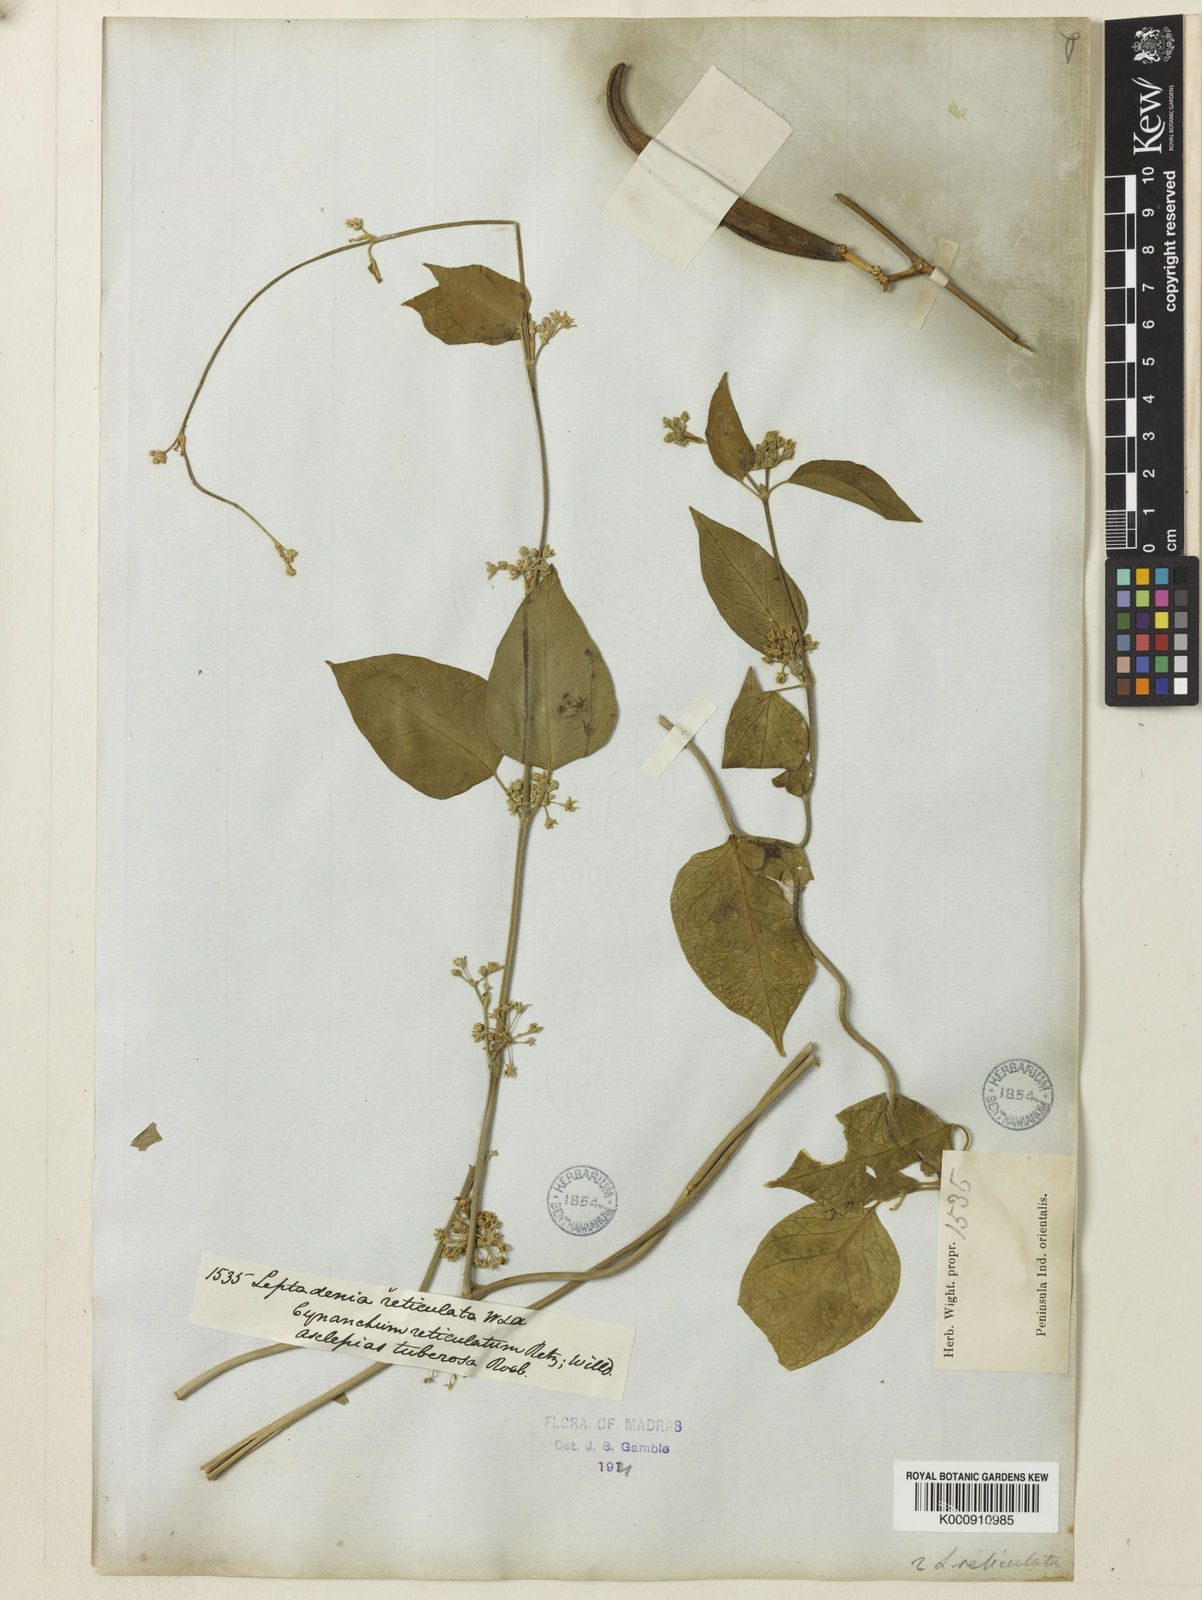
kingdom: Plantae
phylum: Tracheophyta
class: Magnoliopsida
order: Gentianales
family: Apocynaceae
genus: Leptadenia
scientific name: Leptadenia reticulata
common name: Leptadenia
